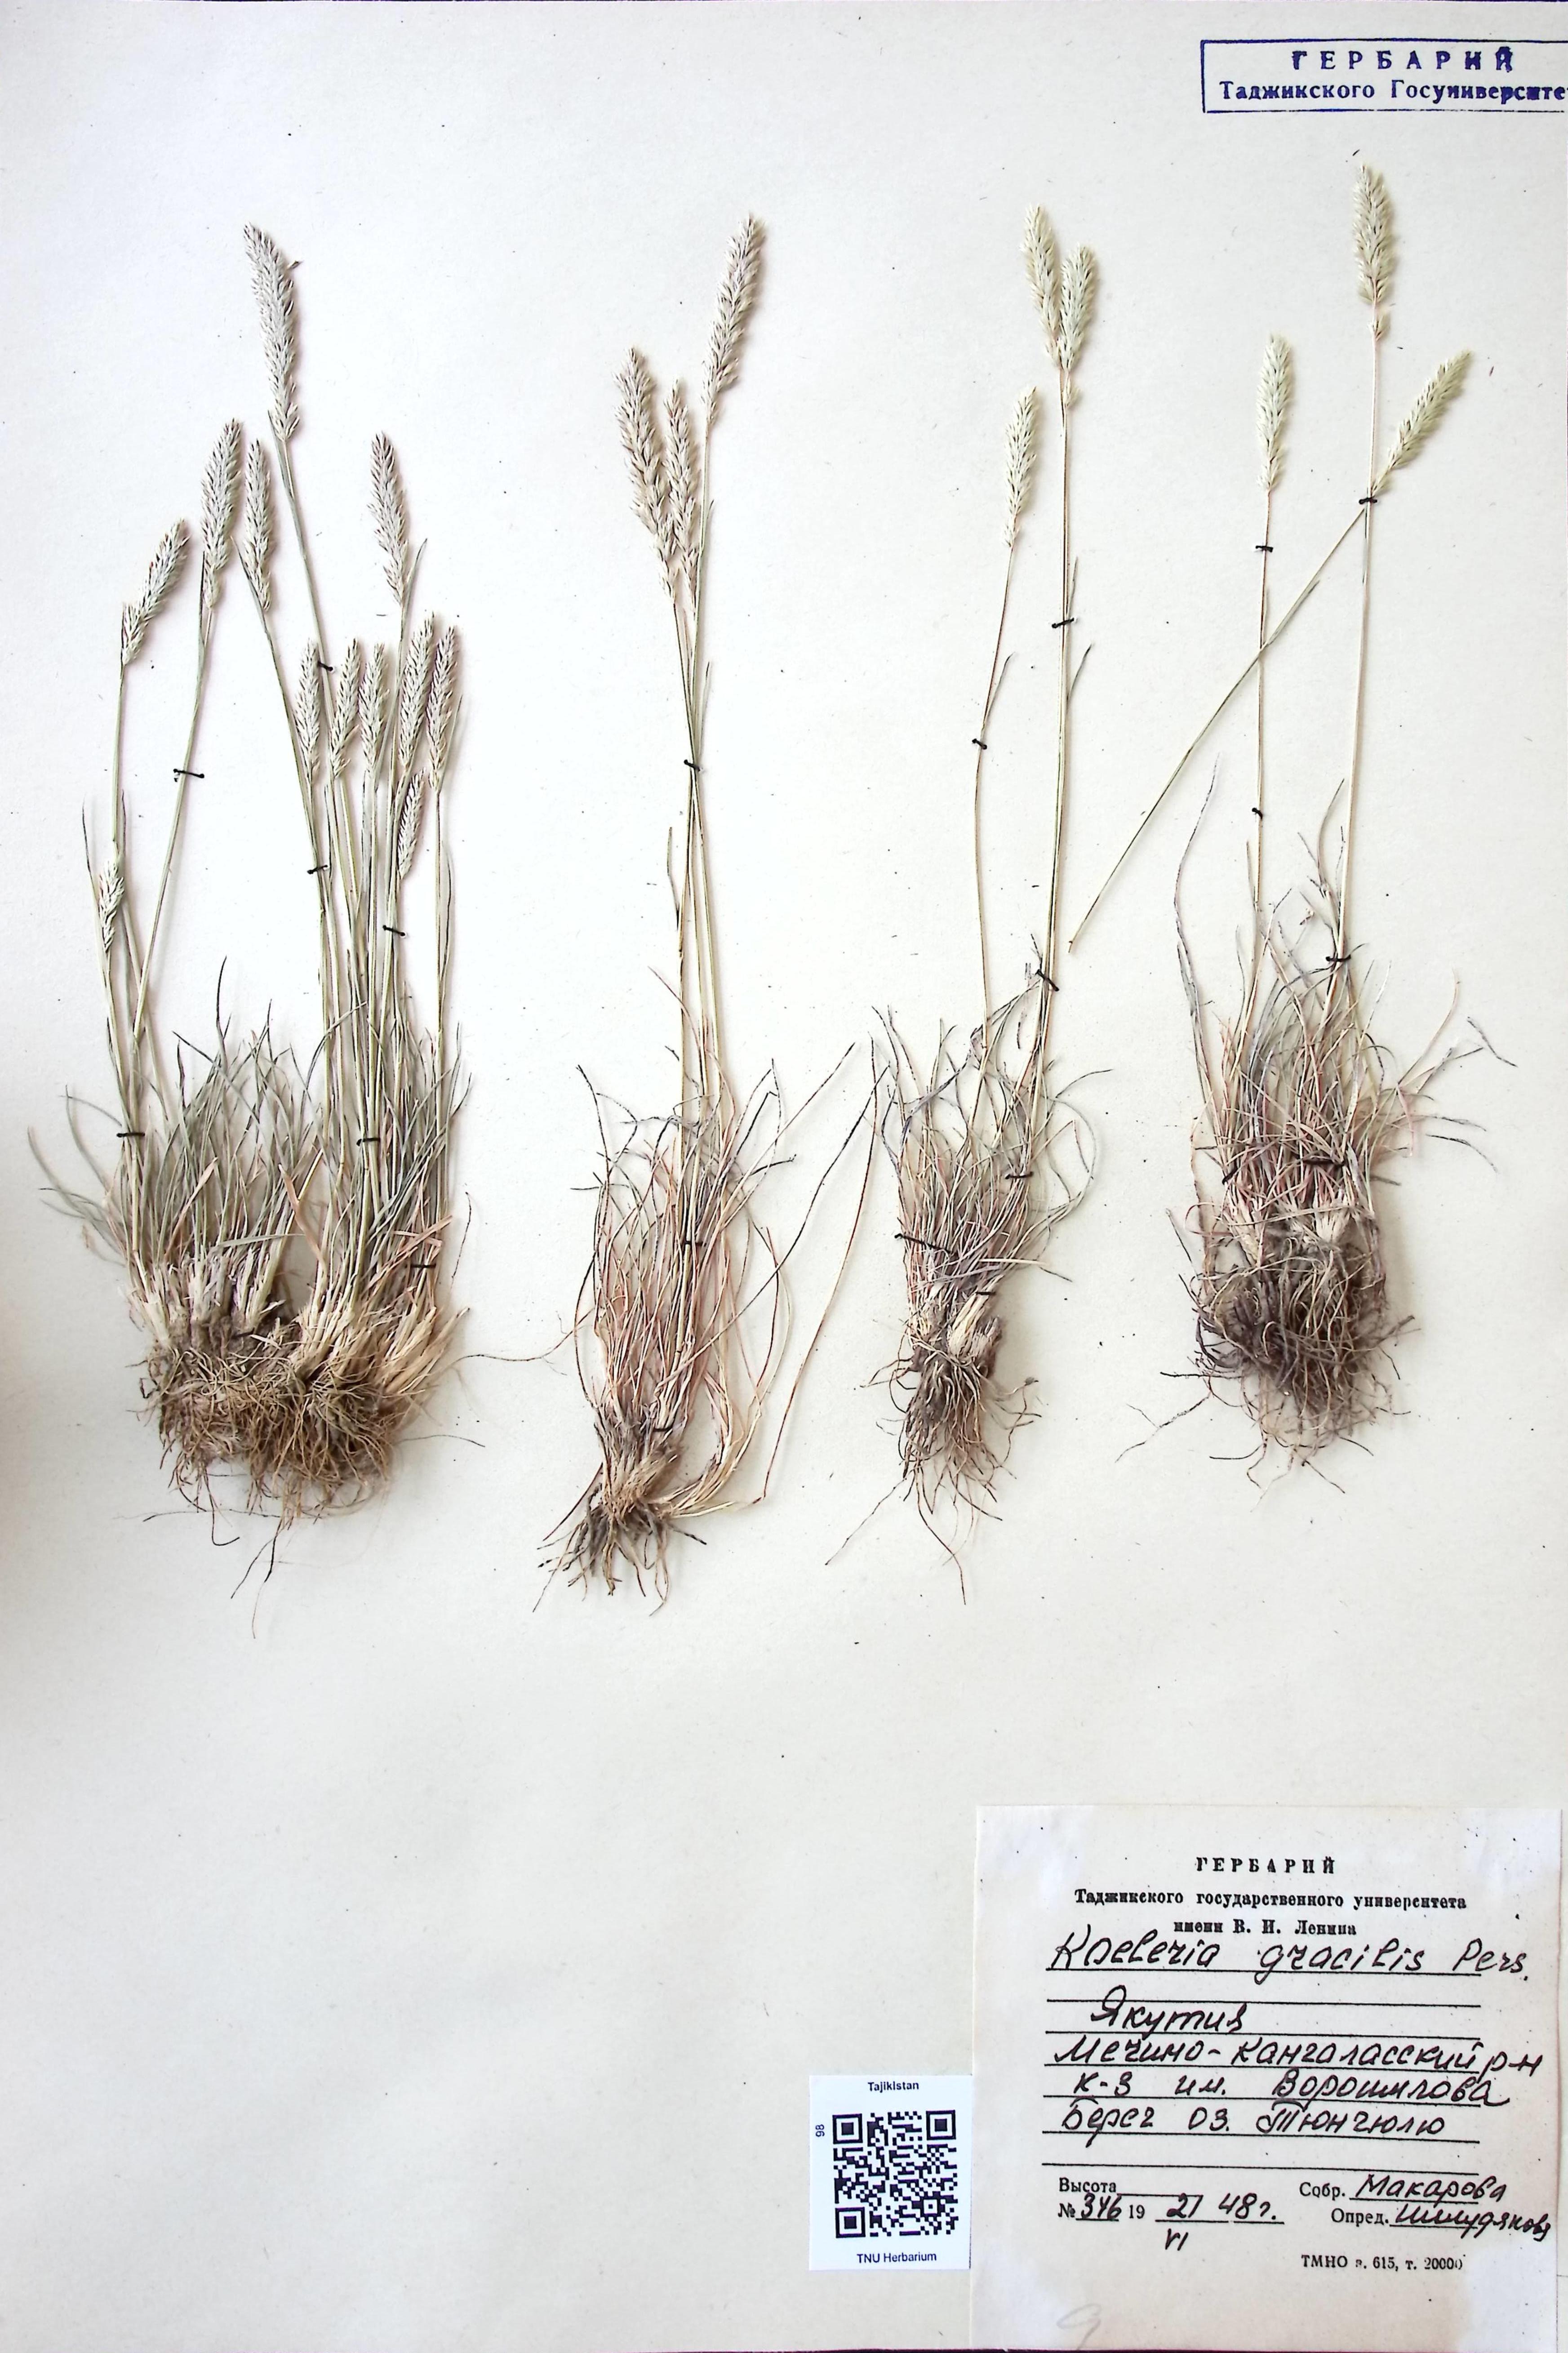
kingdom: Plantae
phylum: Tracheophyta
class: Liliopsida
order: Poales
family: Poaceae
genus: Koeleria
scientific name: Koeleria macrantha
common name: Crested hair-grass
